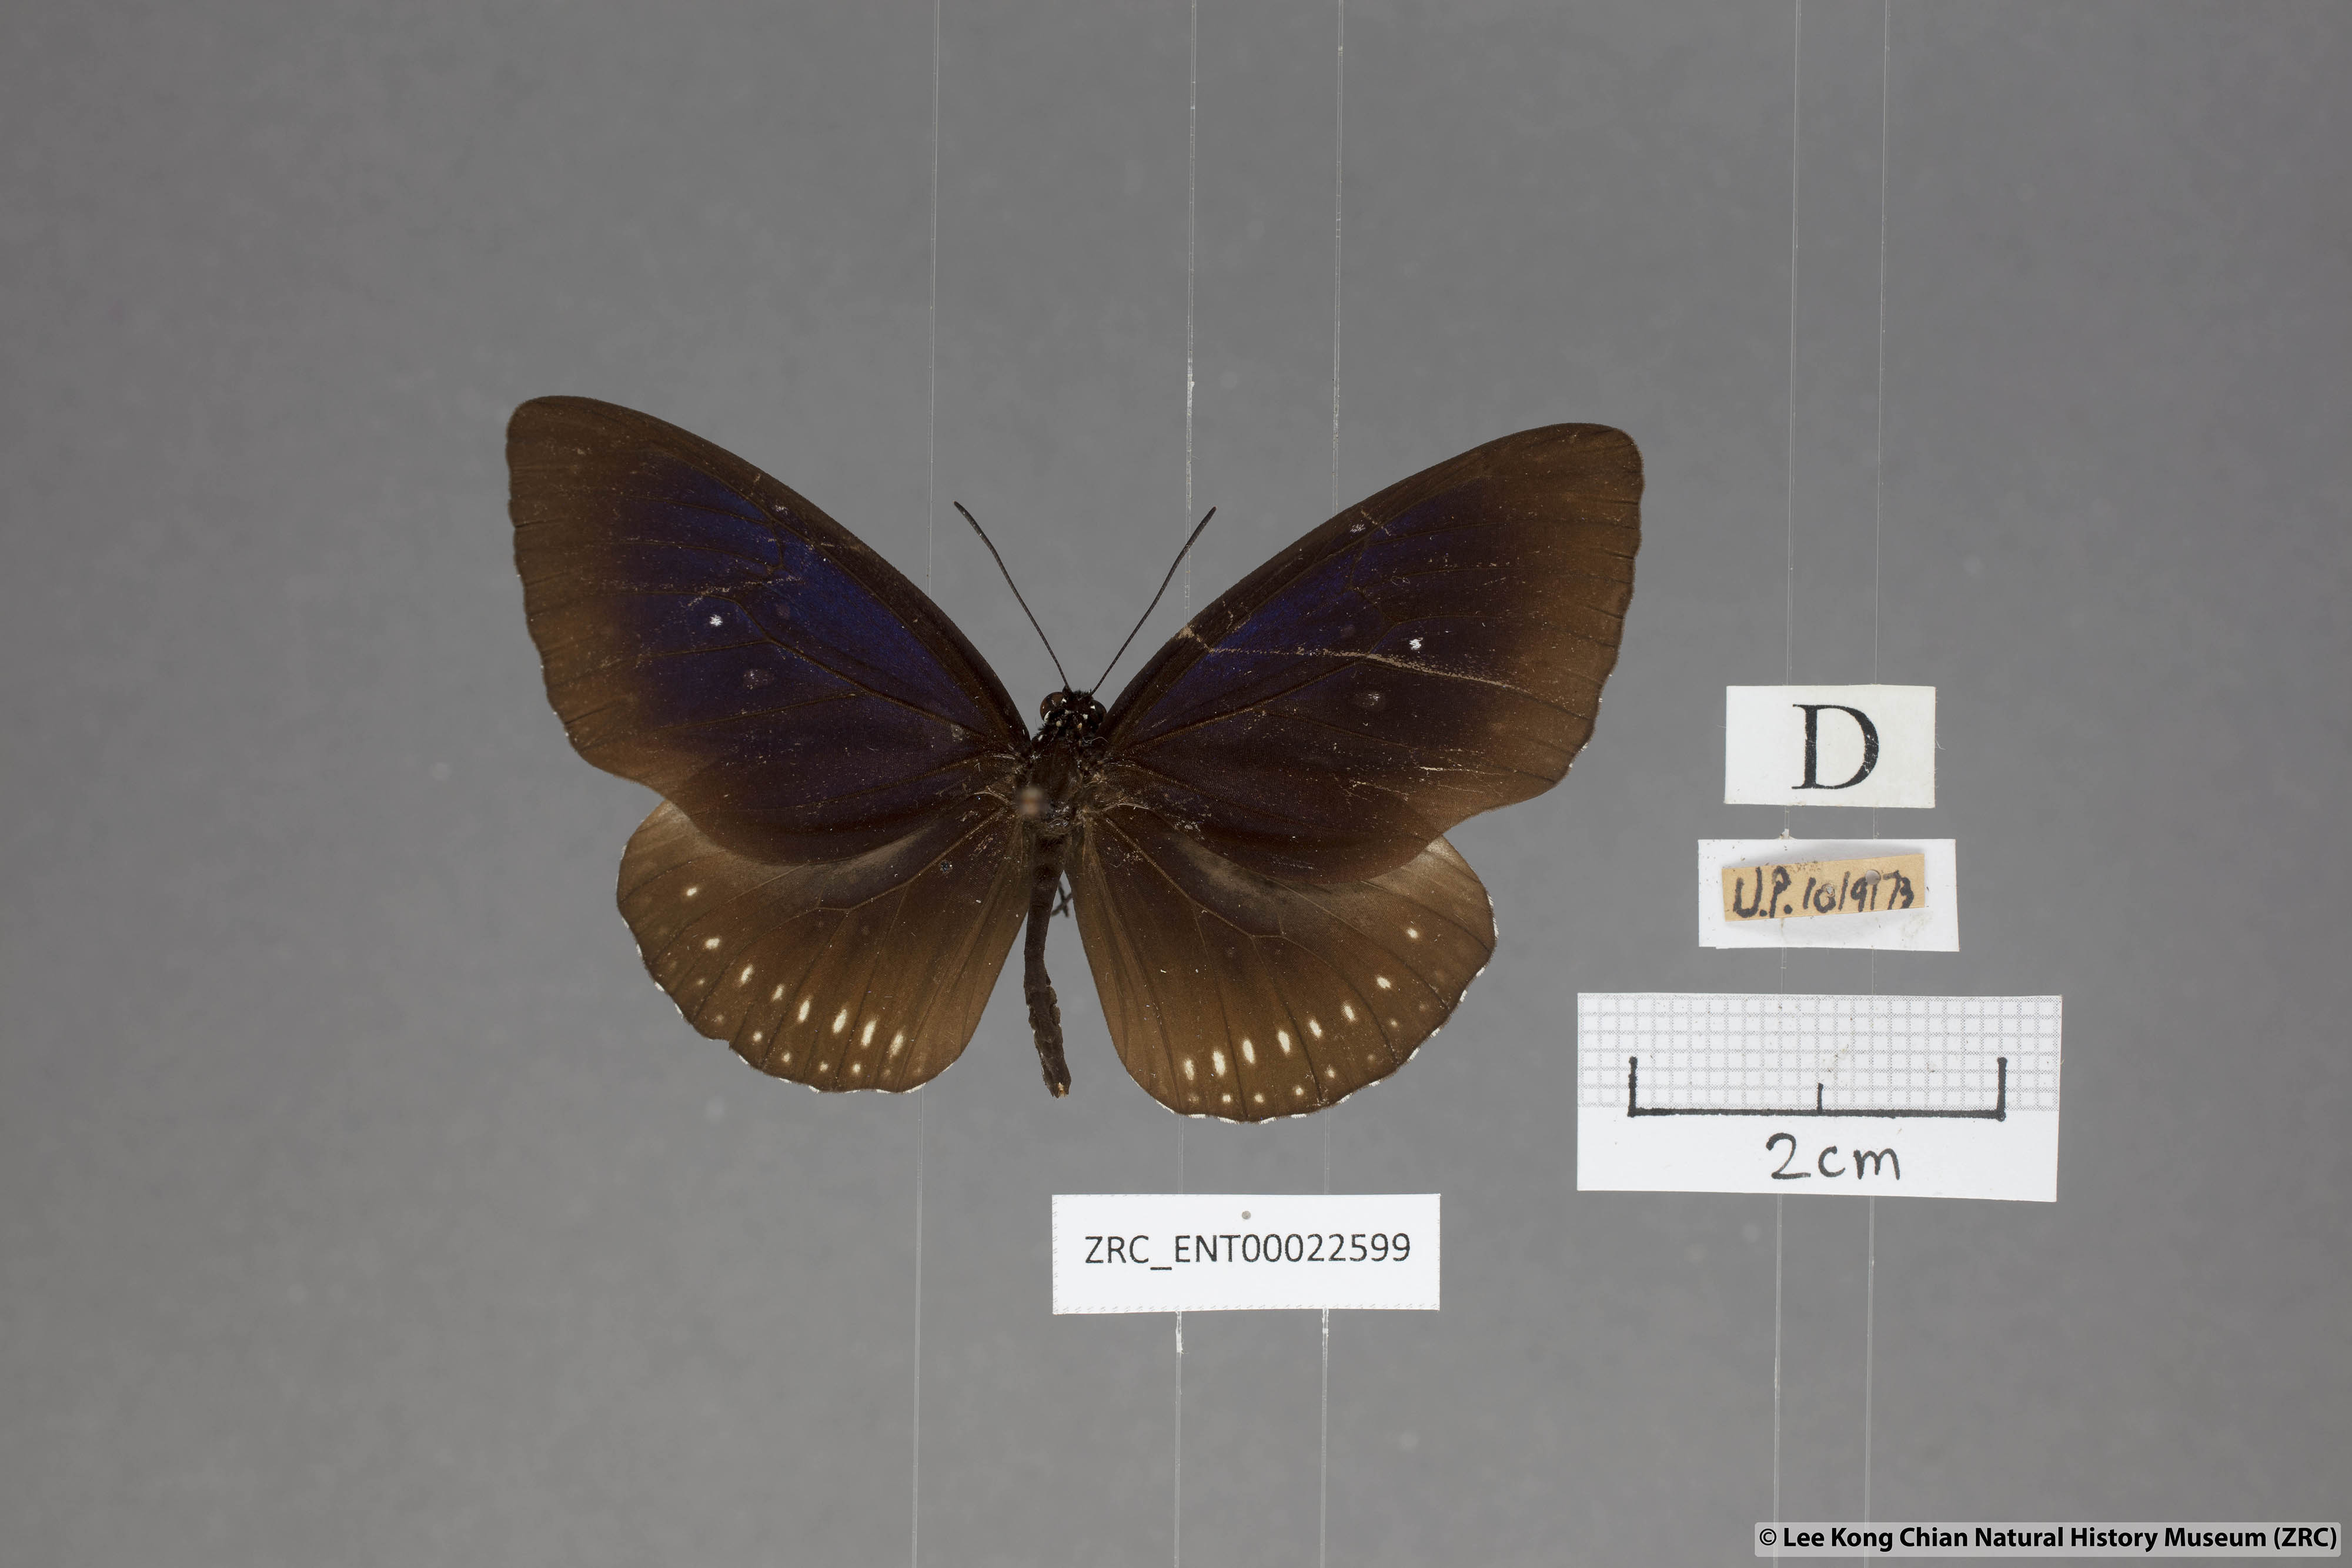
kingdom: Animalia
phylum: Arthropoda
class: Insecta
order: Lepidoptera
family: Nymphalidae
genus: Euploea
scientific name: Euploea modesta
